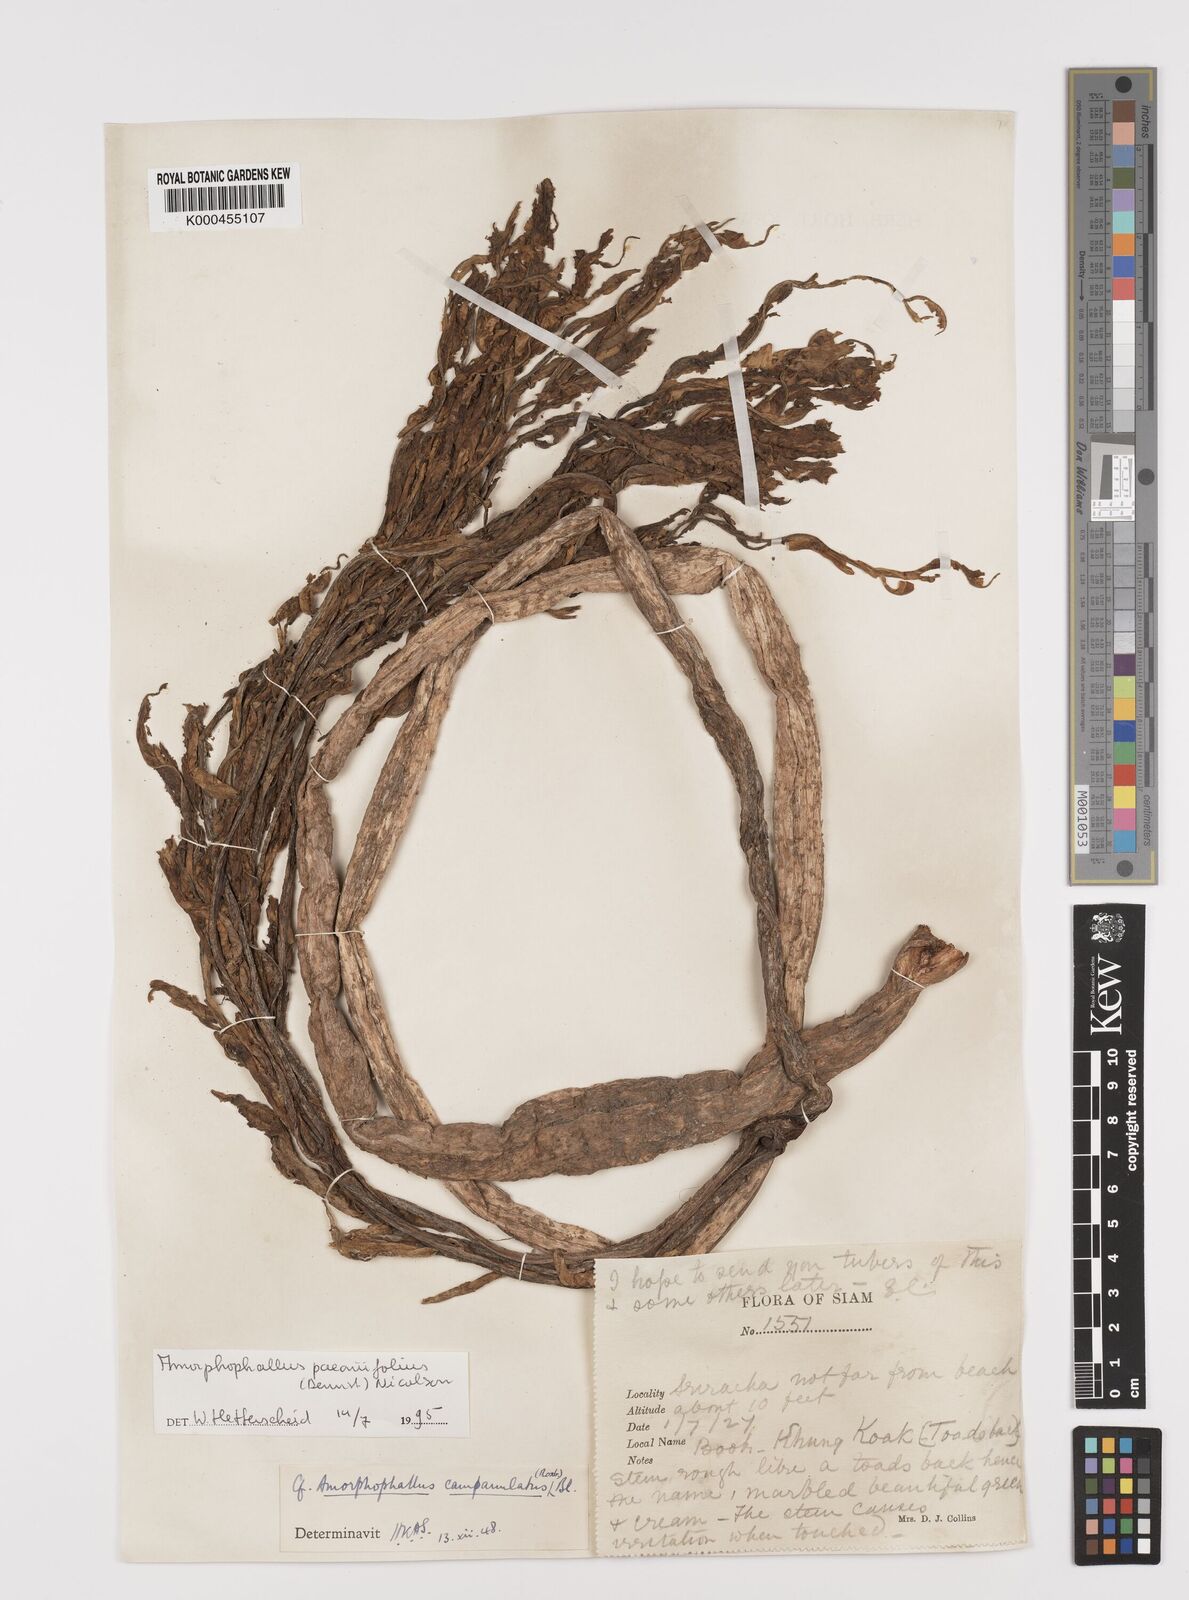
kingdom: Plantae
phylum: Tracheophyta
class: Liliopsida
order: Alismatales
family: Araceae
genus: Amorphophallus
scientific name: Amorphophallus paeoniifolius
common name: Telinga-potato
